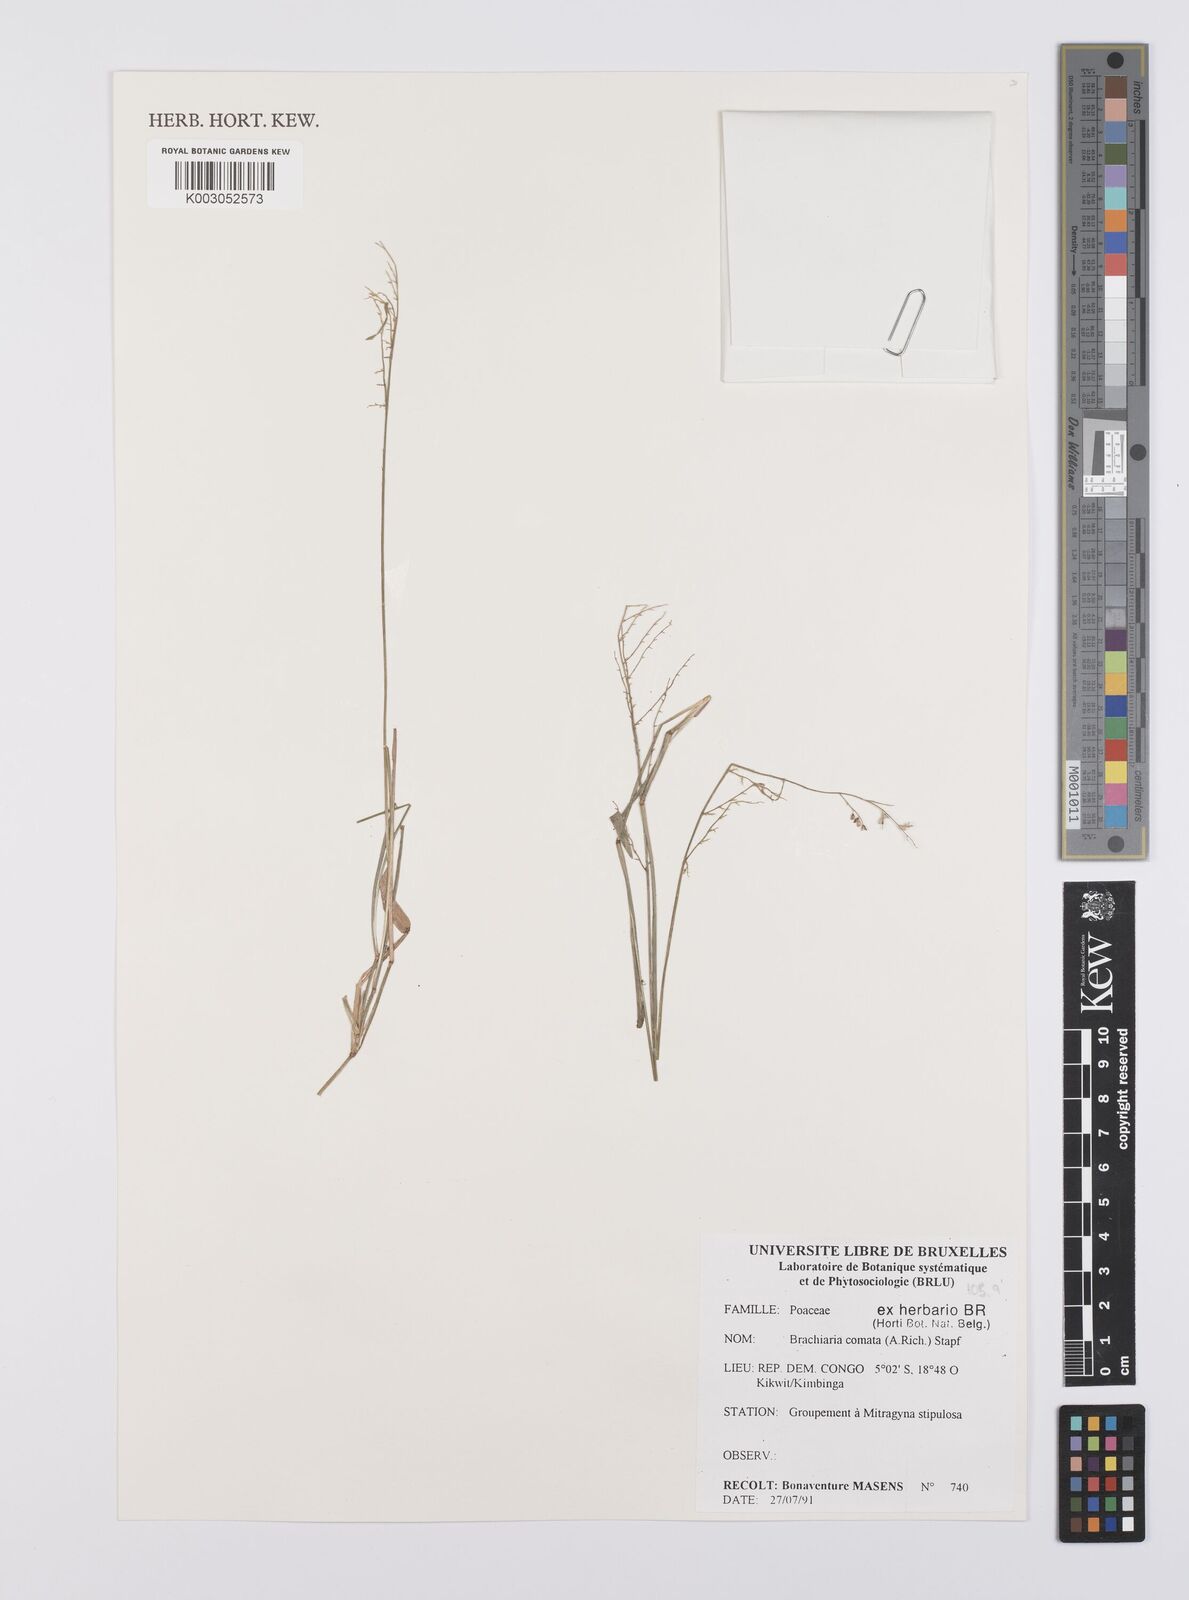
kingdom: Plantae
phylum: Tracheophyta
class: Liliopsida
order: Poales
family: Poaceae
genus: Urochloa
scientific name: Urochloa comata
